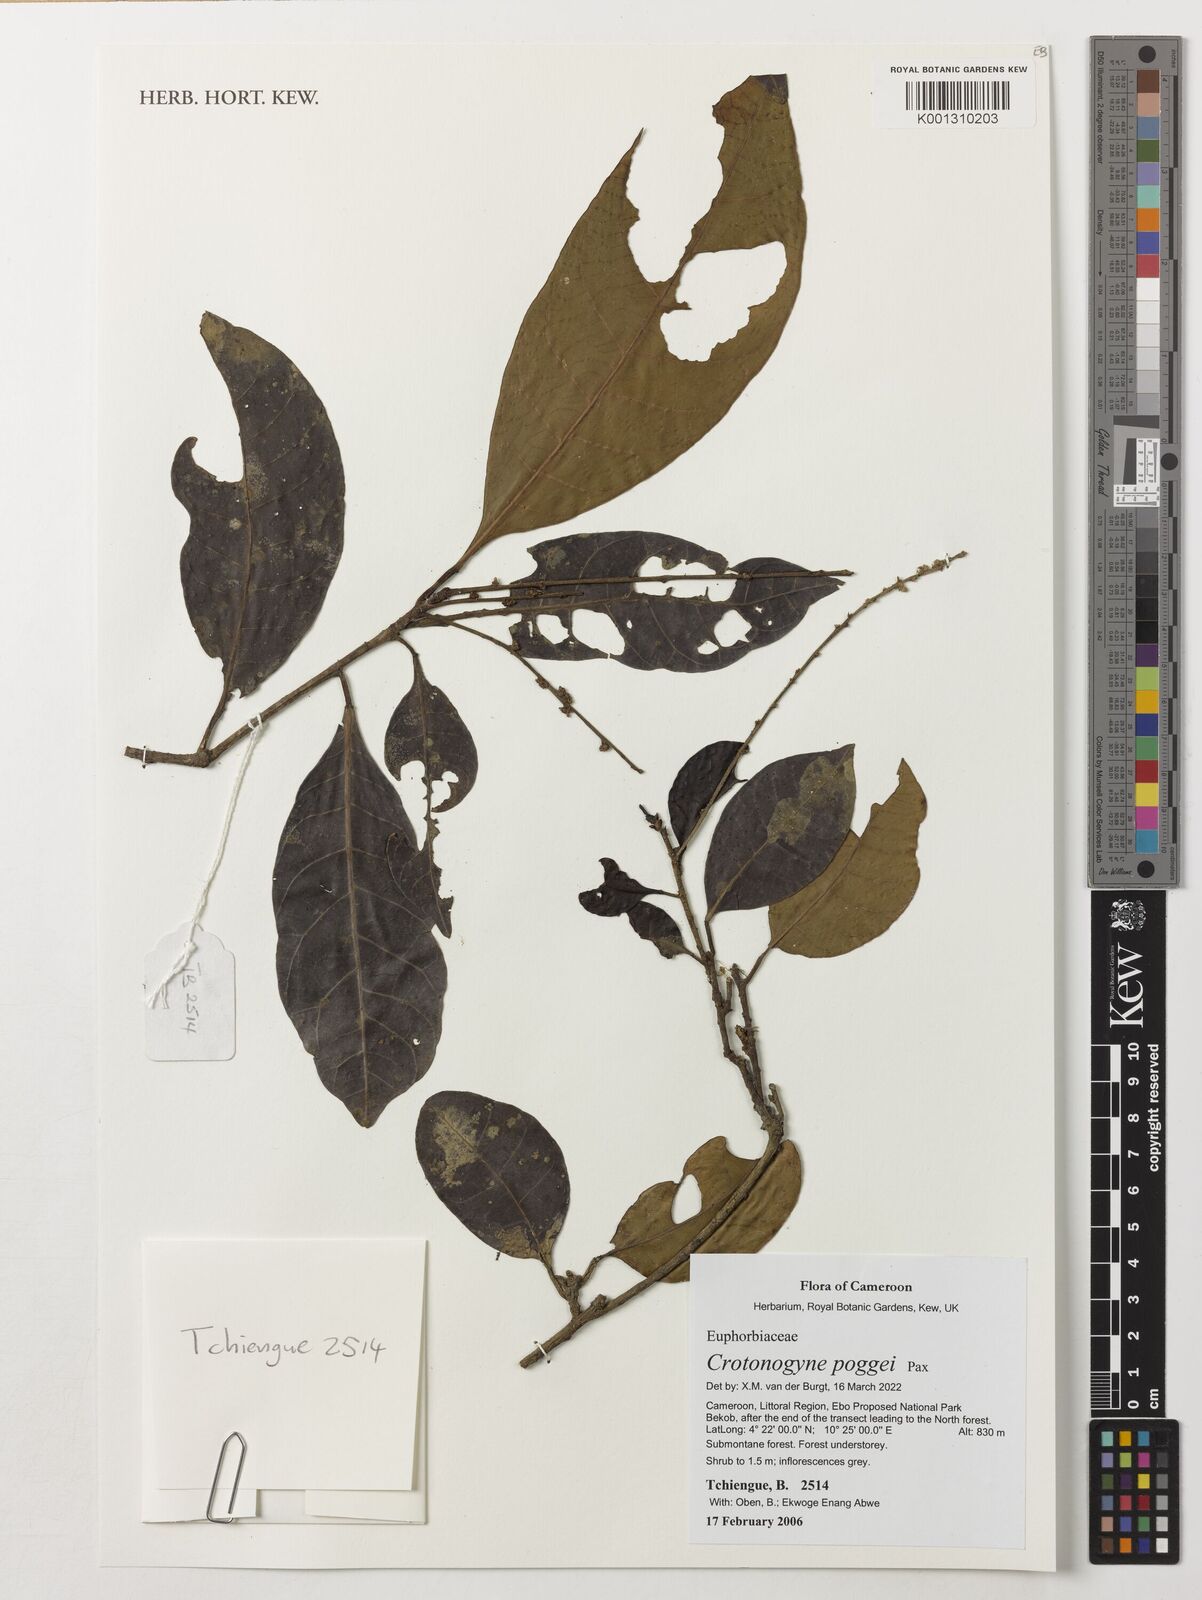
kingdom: Plantae
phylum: Tracheophyta
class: Magnoliopsida
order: Malpighiales
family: Euphorbiaceae
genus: Crotonogyne
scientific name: Crotonogyne poggei
